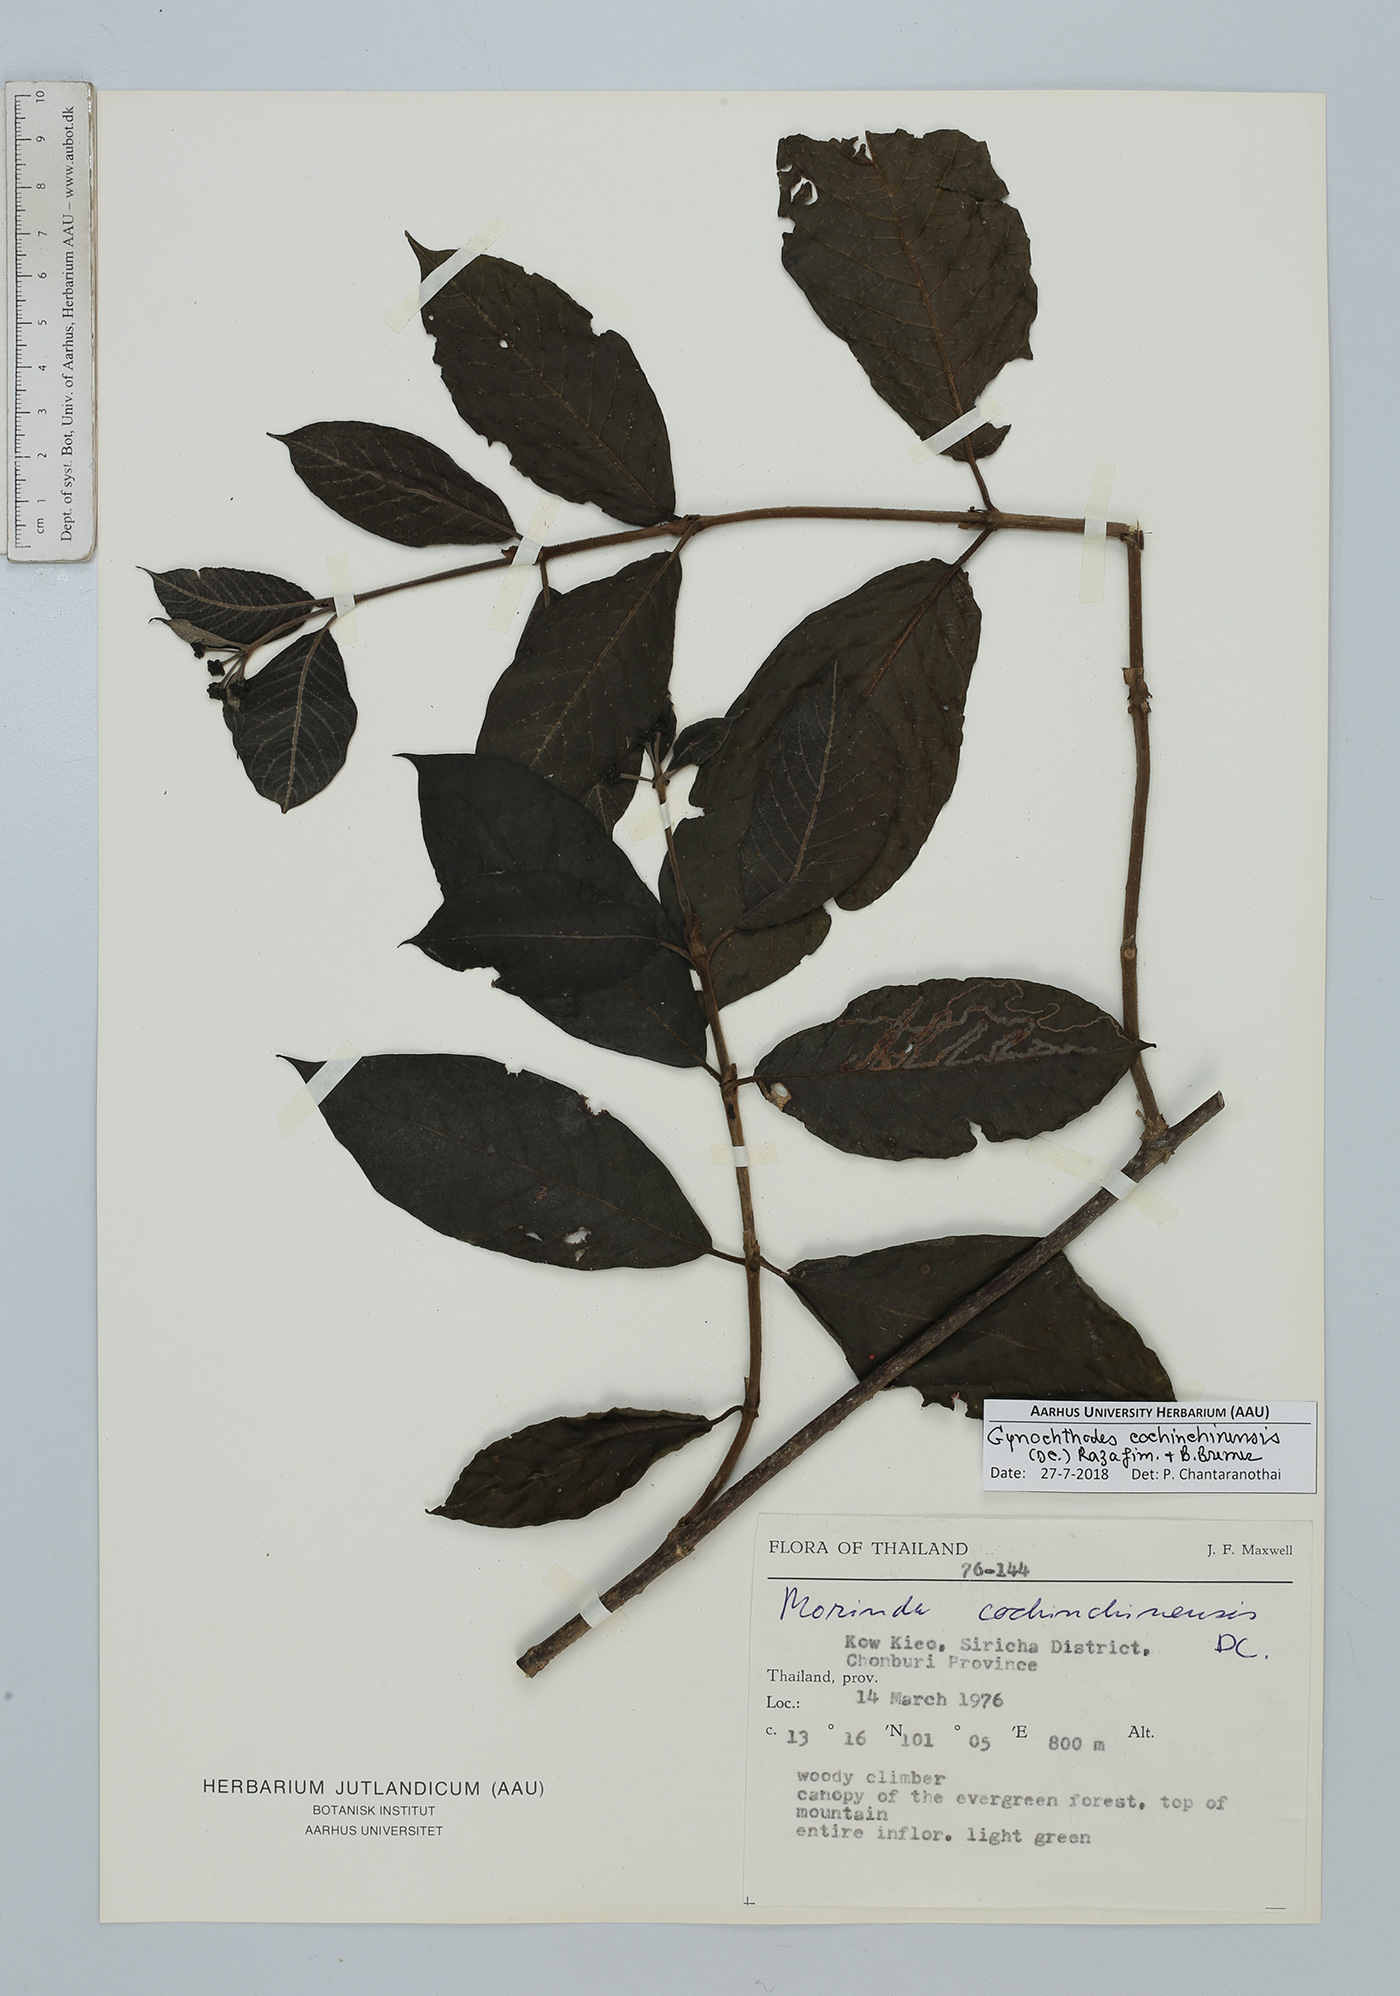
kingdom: Plantae
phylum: Tracheophyta
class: Magnoliopsida
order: Gentianales
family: Rubiaceae
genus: Gynochthodes
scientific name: Gynochthodes cochinchinensis
